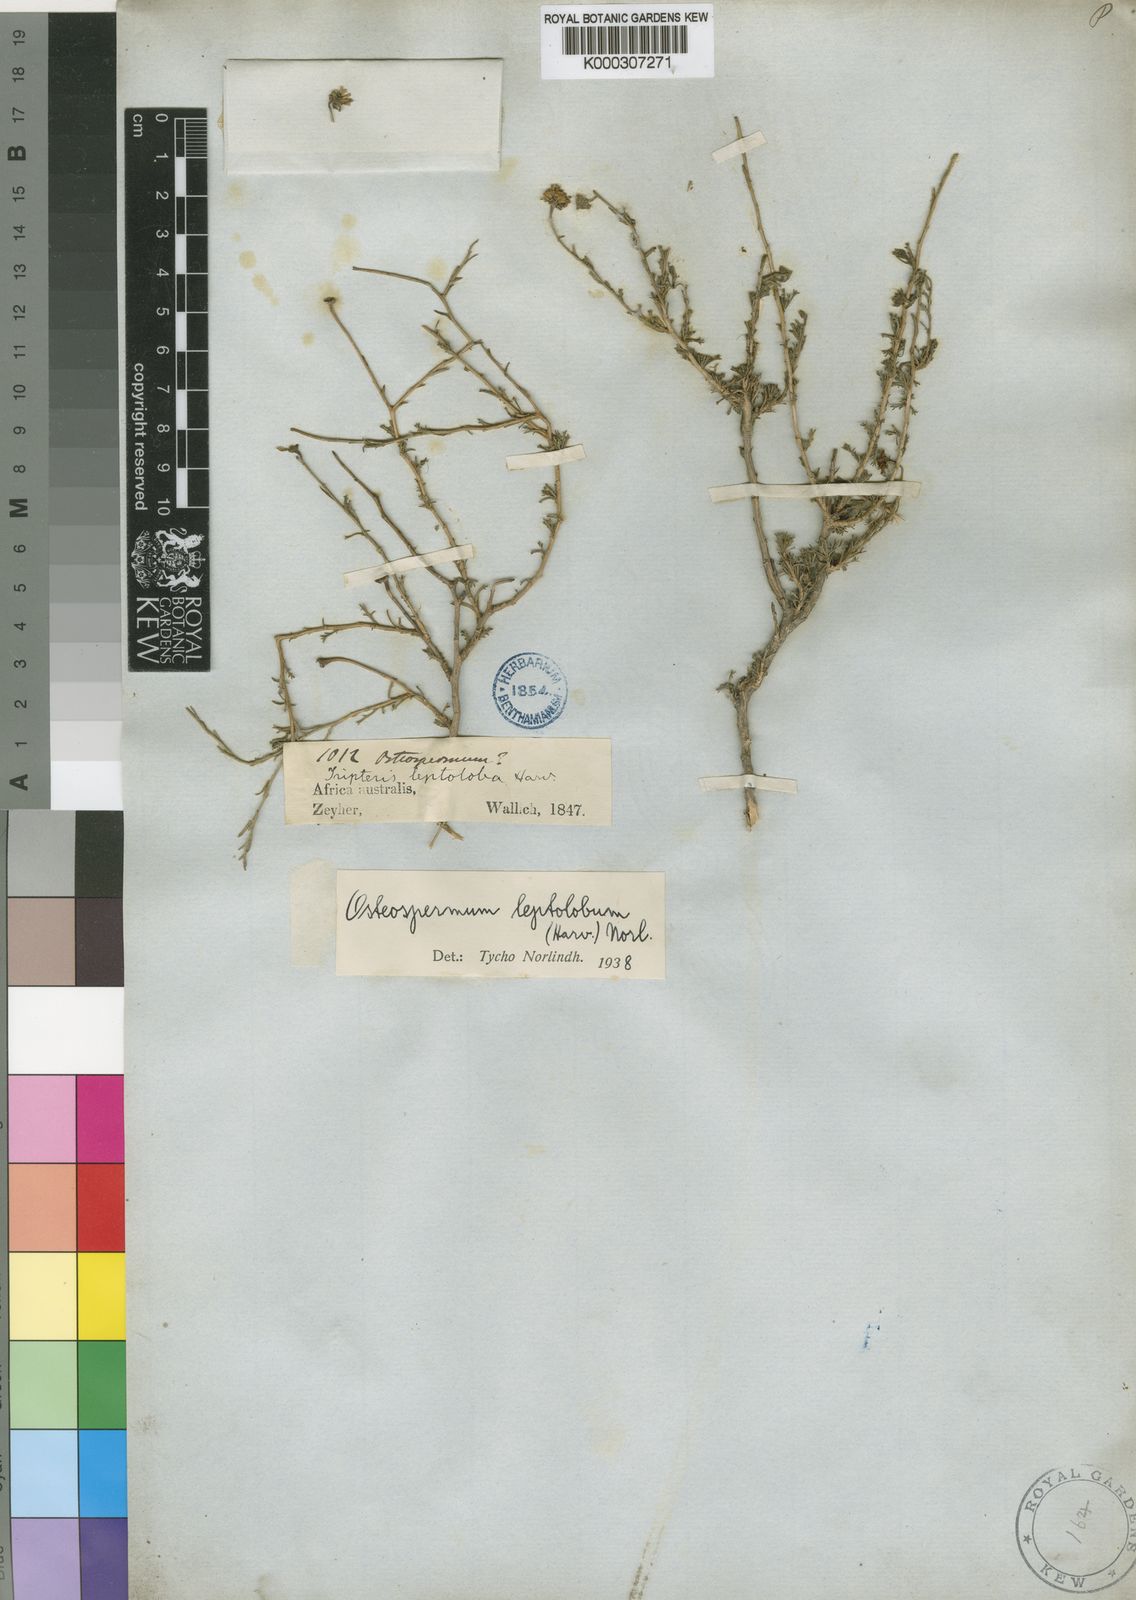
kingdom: Plantae
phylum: Tracheophyta
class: Magnoliopsida
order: Asterales
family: Asteraceae
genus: Osteospermum
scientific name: Osteospermum leptolobum
